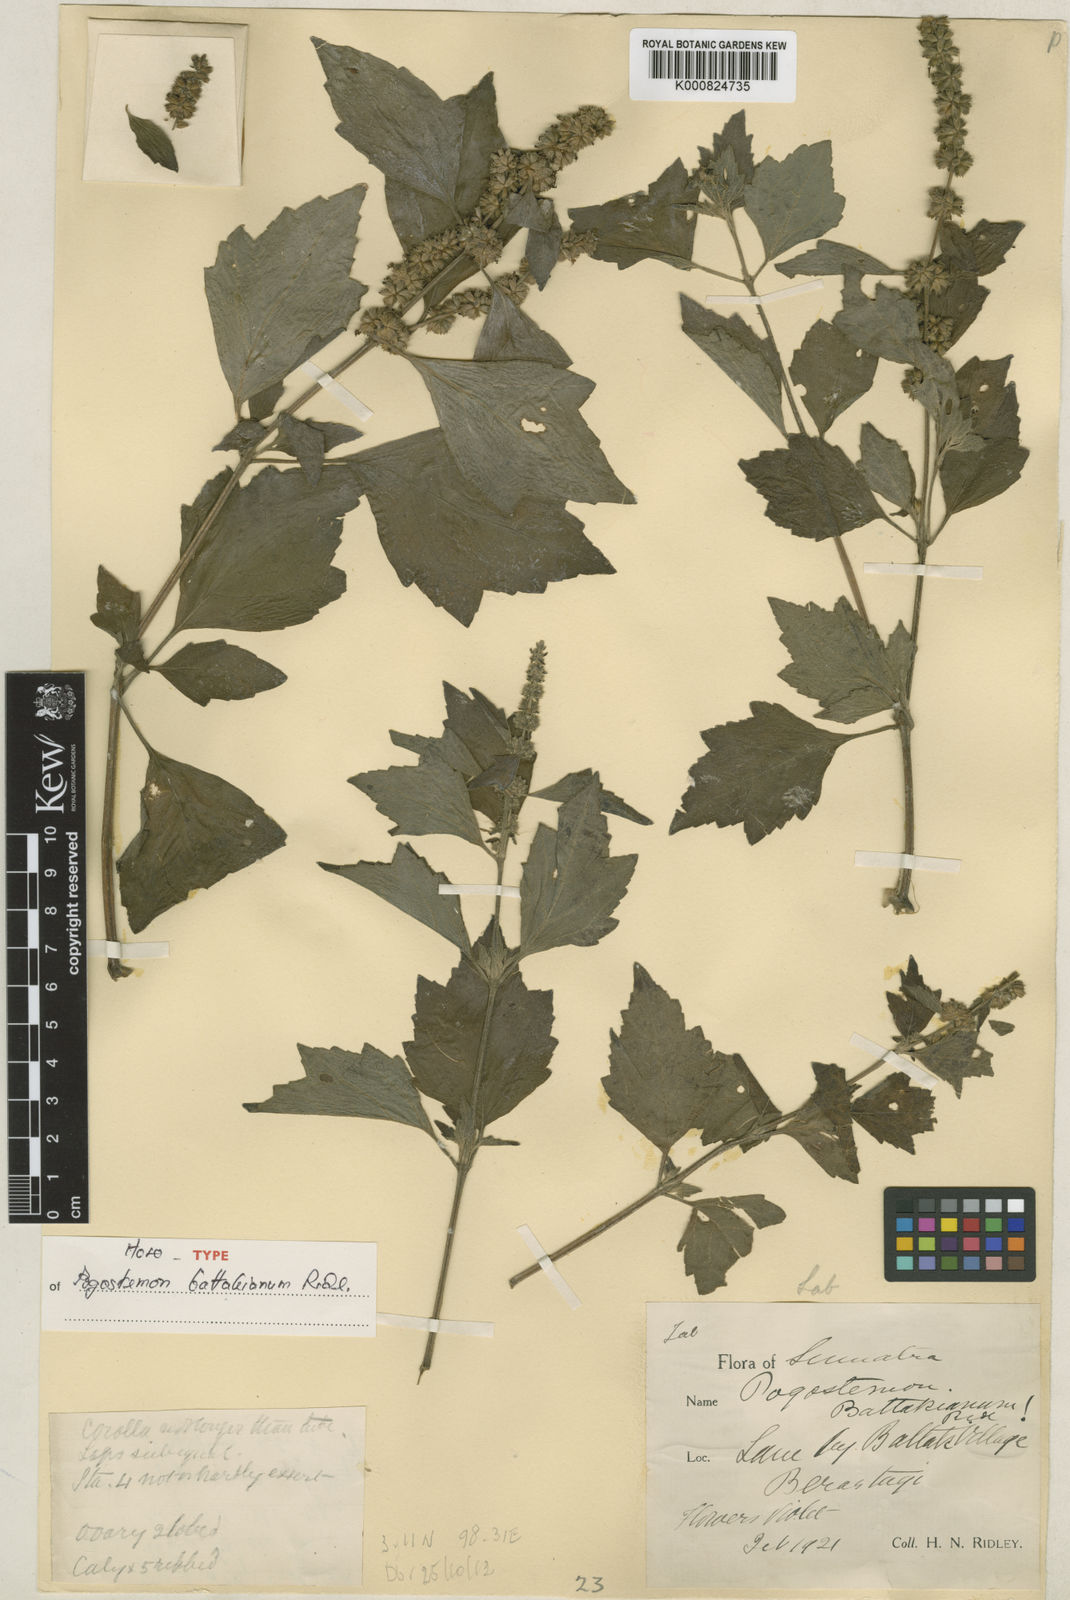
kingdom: Plantae
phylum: Tracheophyta
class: Magnoliopsida
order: Lamiales
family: Lamiaceae
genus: Pogostemon
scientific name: Pogostemon cablin
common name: Patchouli-plant
